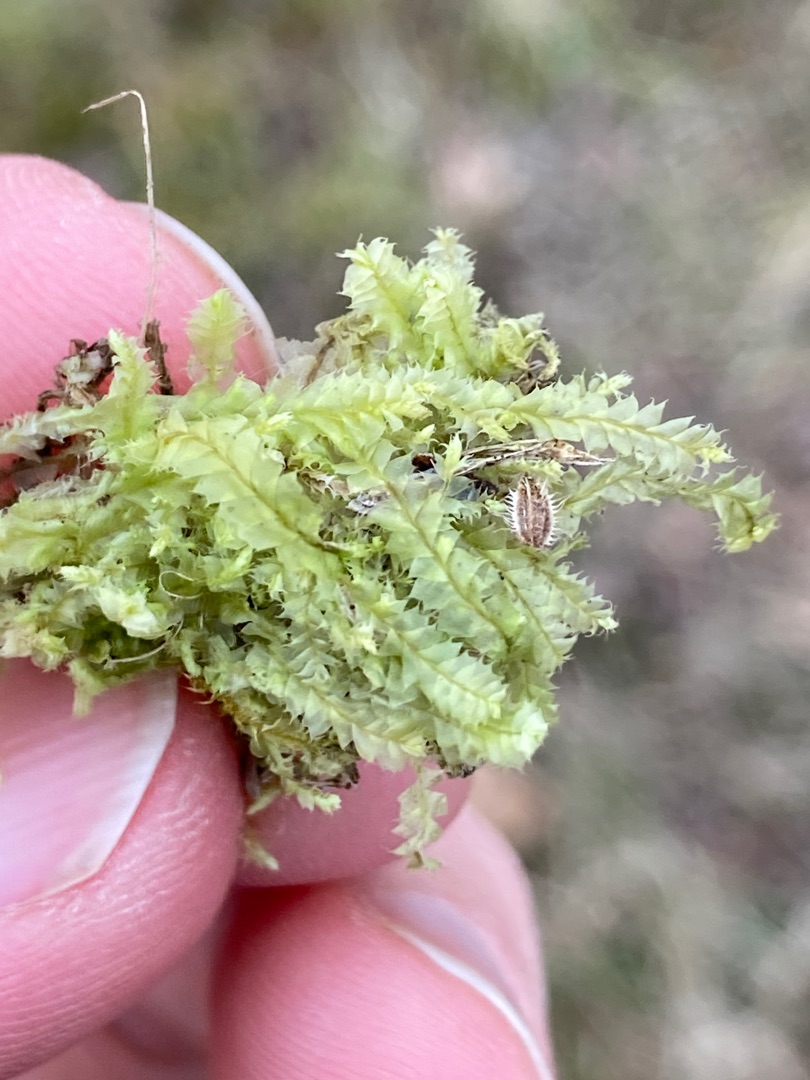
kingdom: Plantae
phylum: Marchantiophyta
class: Jungermanniopsida
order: Jungermanniales
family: Lophocoleaceae
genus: Lophocolea
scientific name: Lophocolea bidentata
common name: Sylspidset kamsvøb
